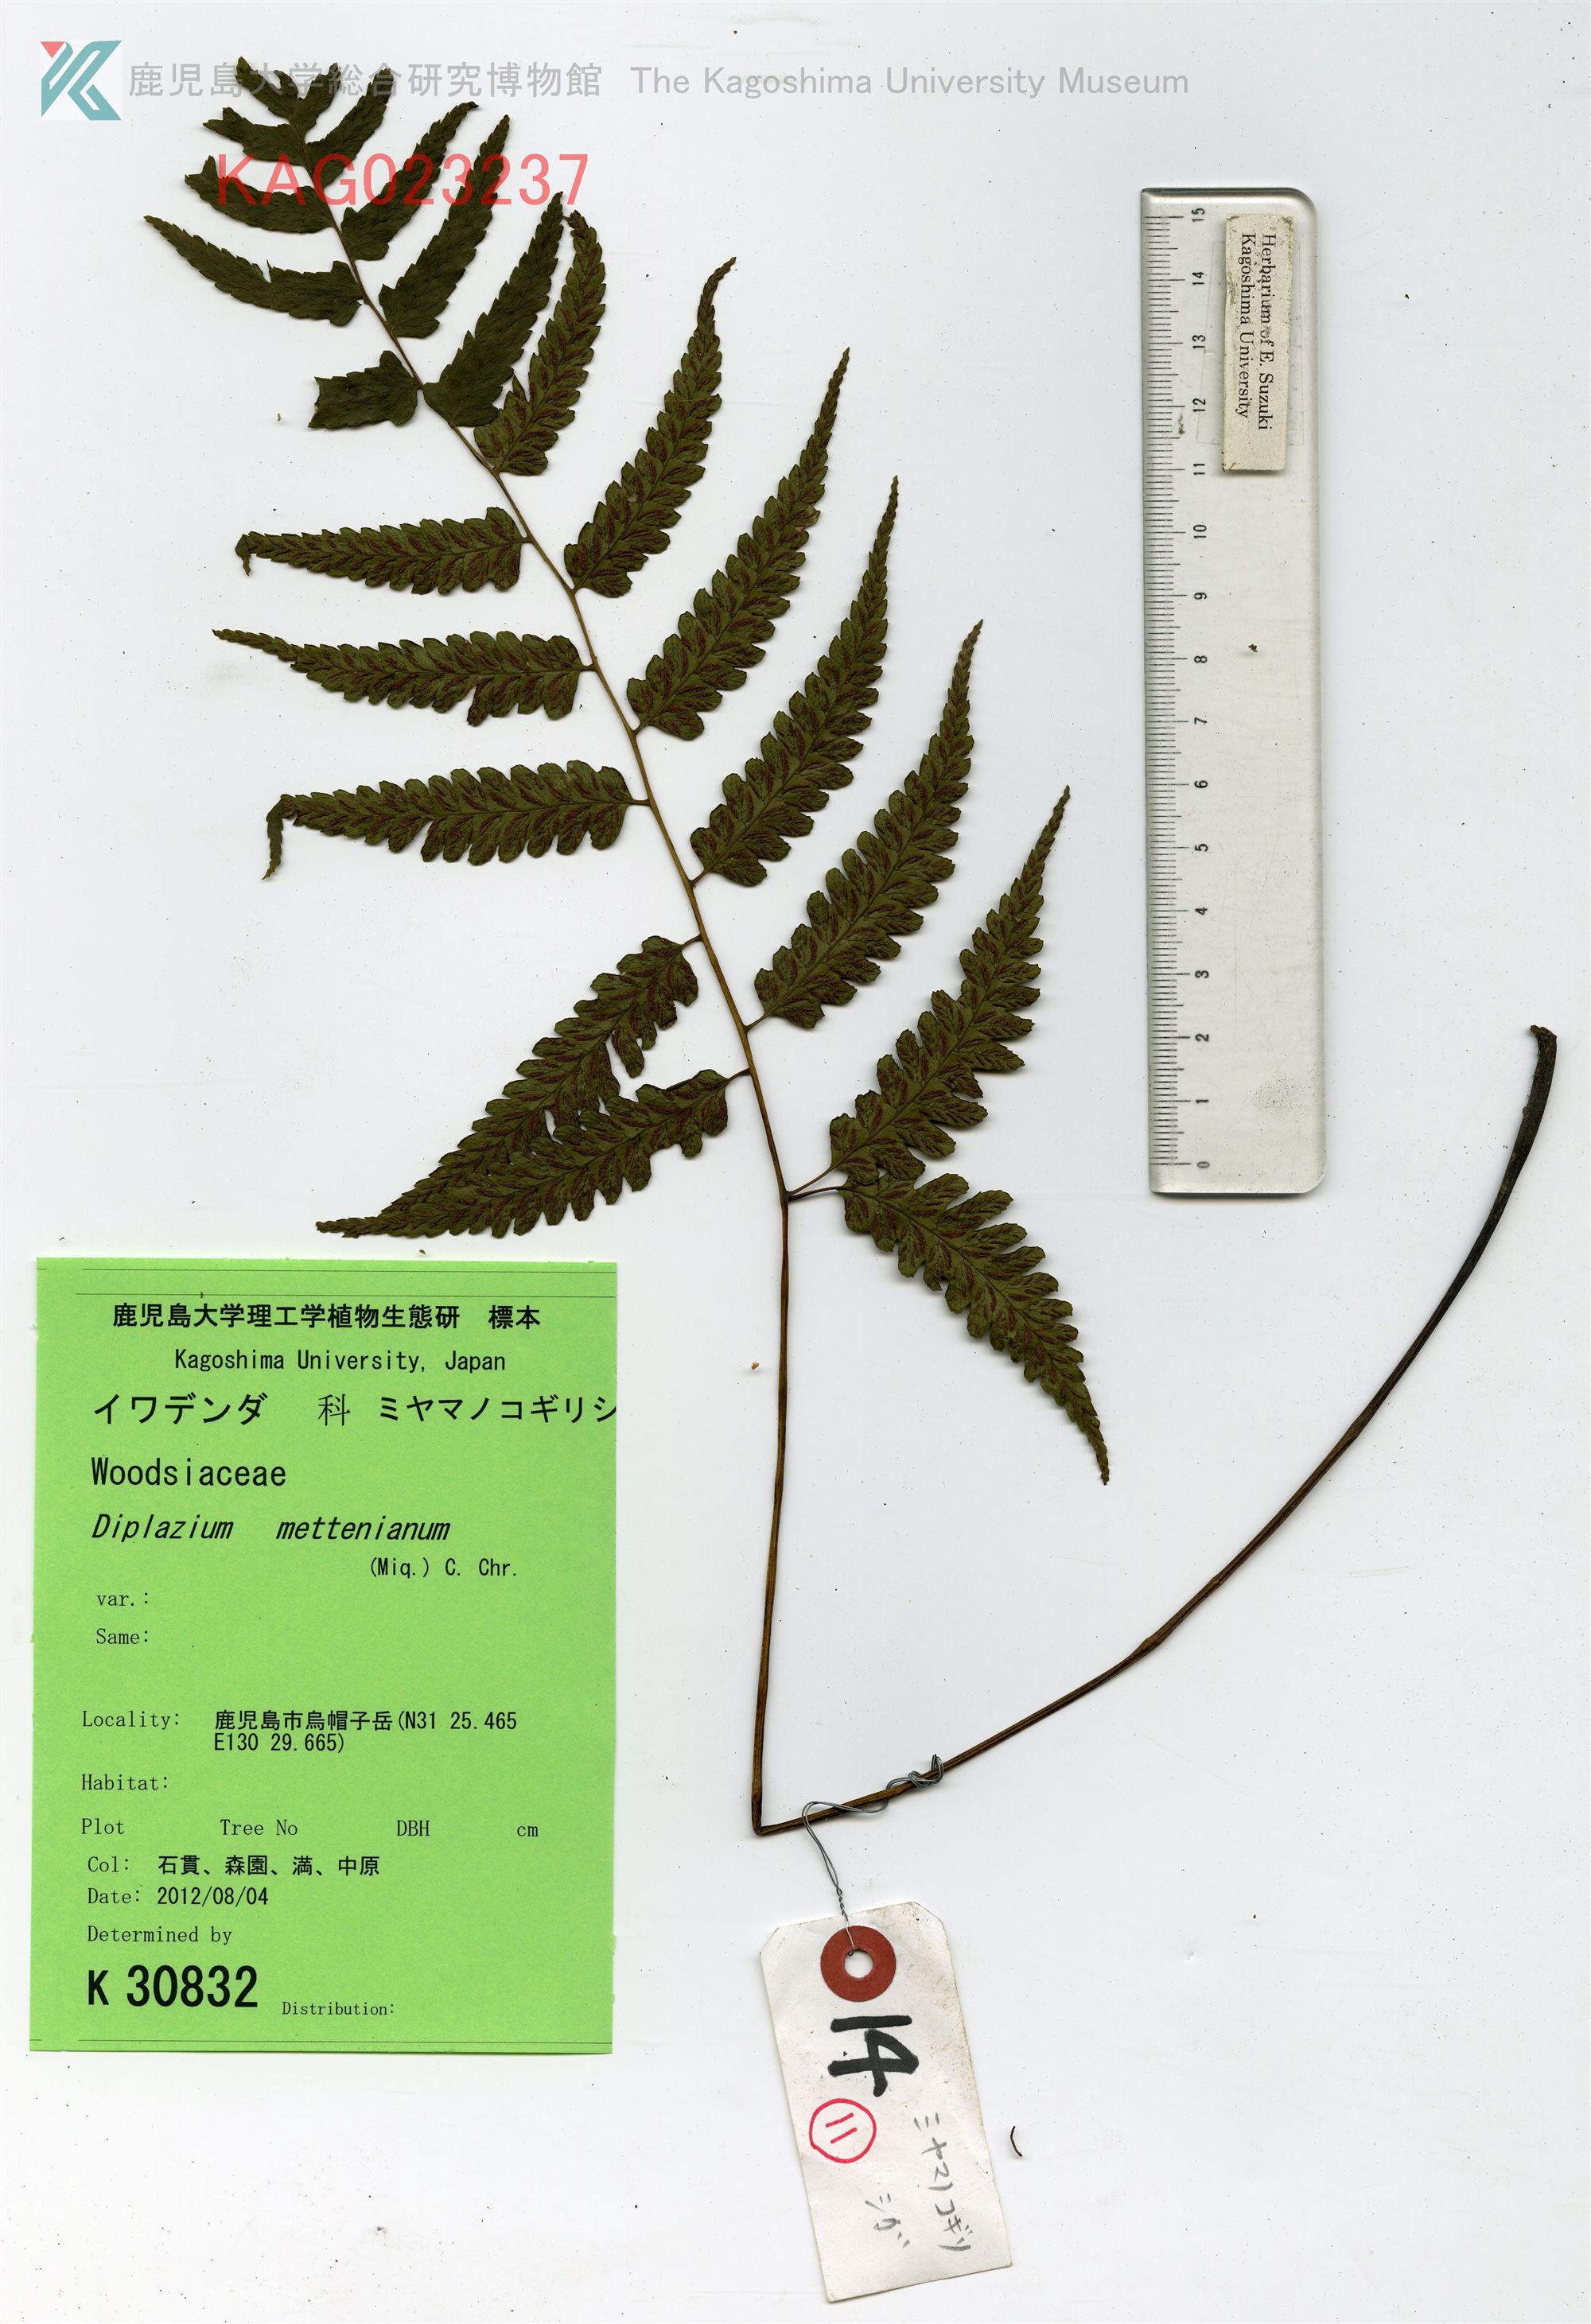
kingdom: Plantae
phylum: Tracheophyta
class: Polypodiopsida
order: Polypodiales
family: Athyriaceae
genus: Diplazium
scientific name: Diplazium mettenianum
